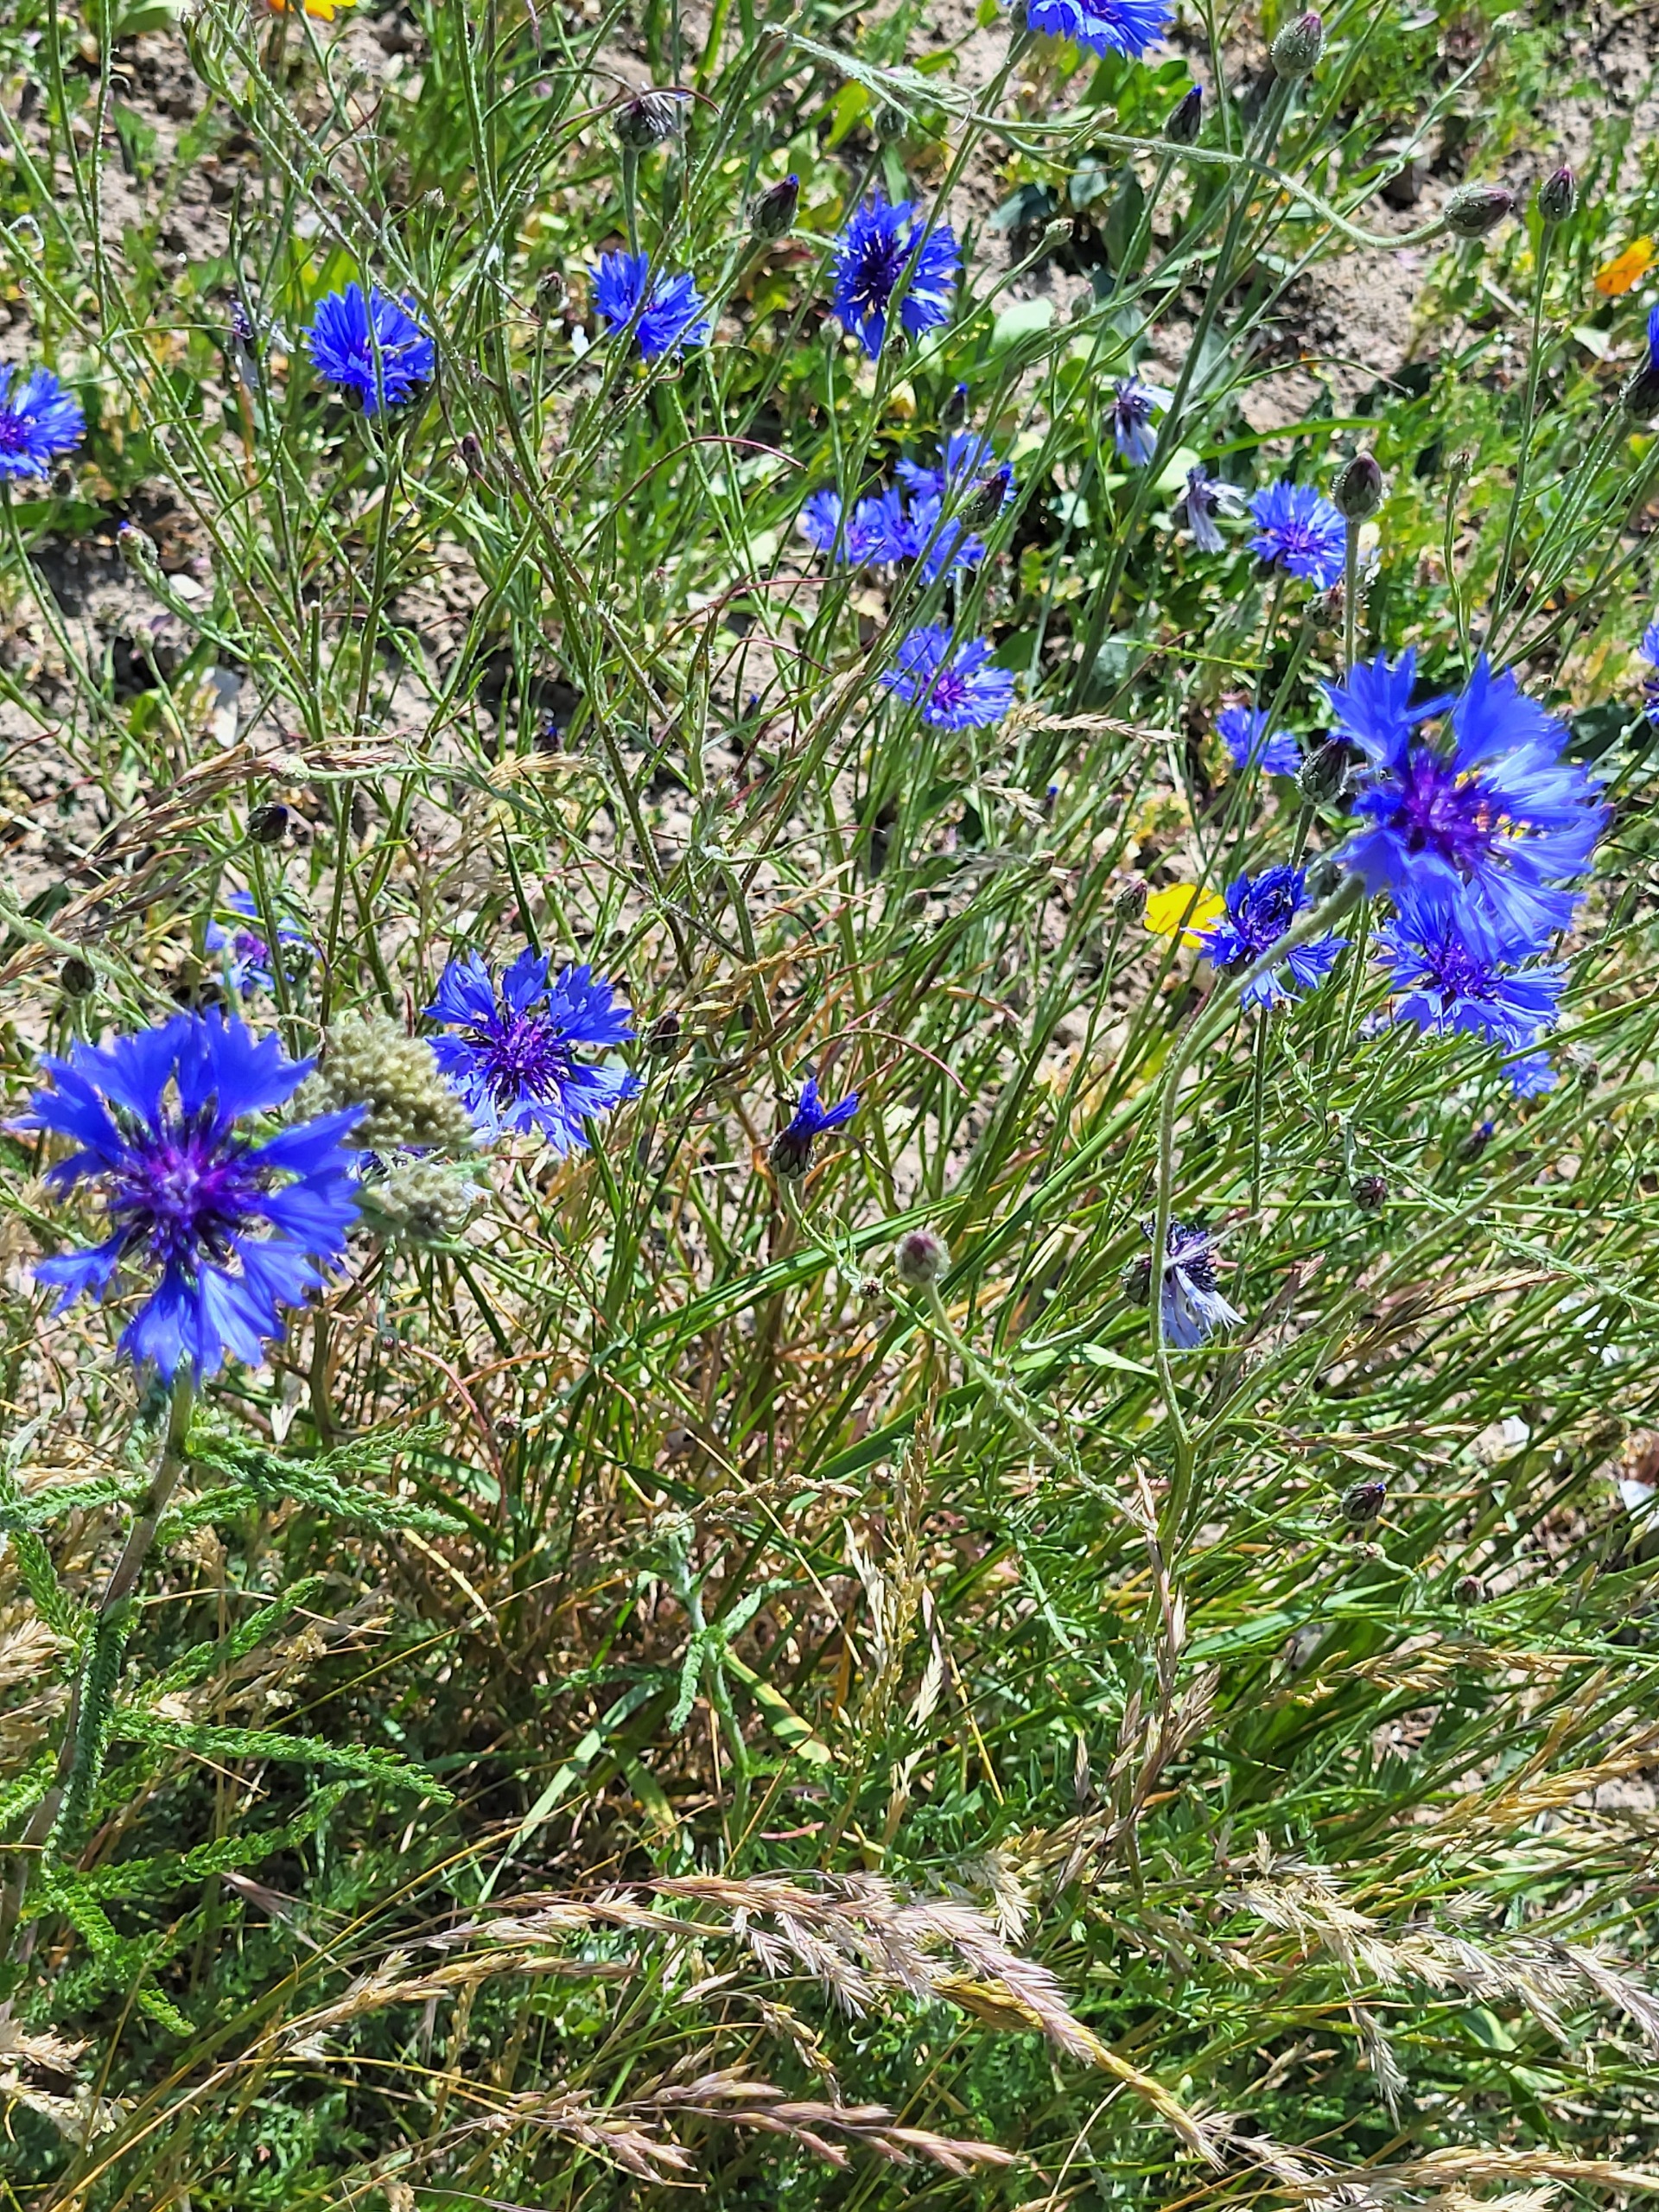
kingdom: Plantae
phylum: Tracheophyta
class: Magnoliopsida
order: Asterales
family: Asteraceae
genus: Centaurea
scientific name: Centaurea cyanus
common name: Kornblomst
